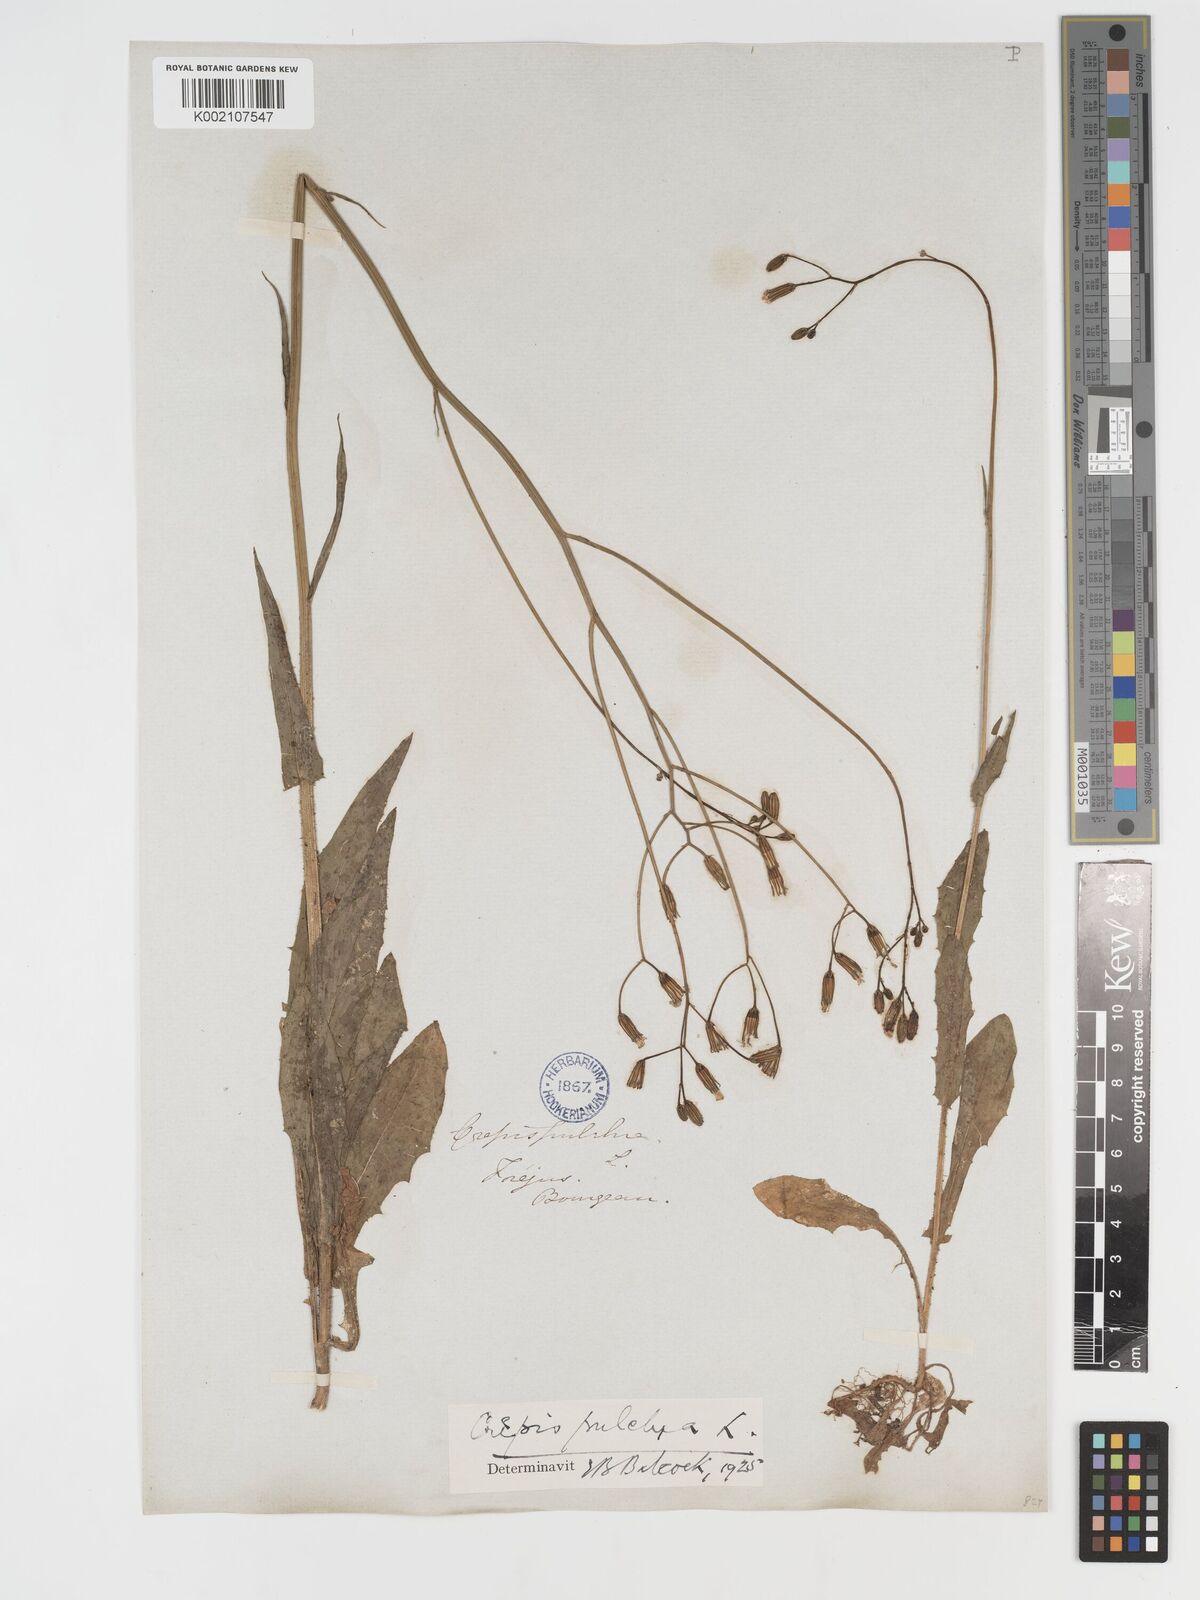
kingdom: Plantae
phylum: Tracheophyta
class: Magnoliopsida
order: Asterales
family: Asteraceae
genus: Crepis
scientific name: Crepis pulchra
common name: Hawk's-beard
